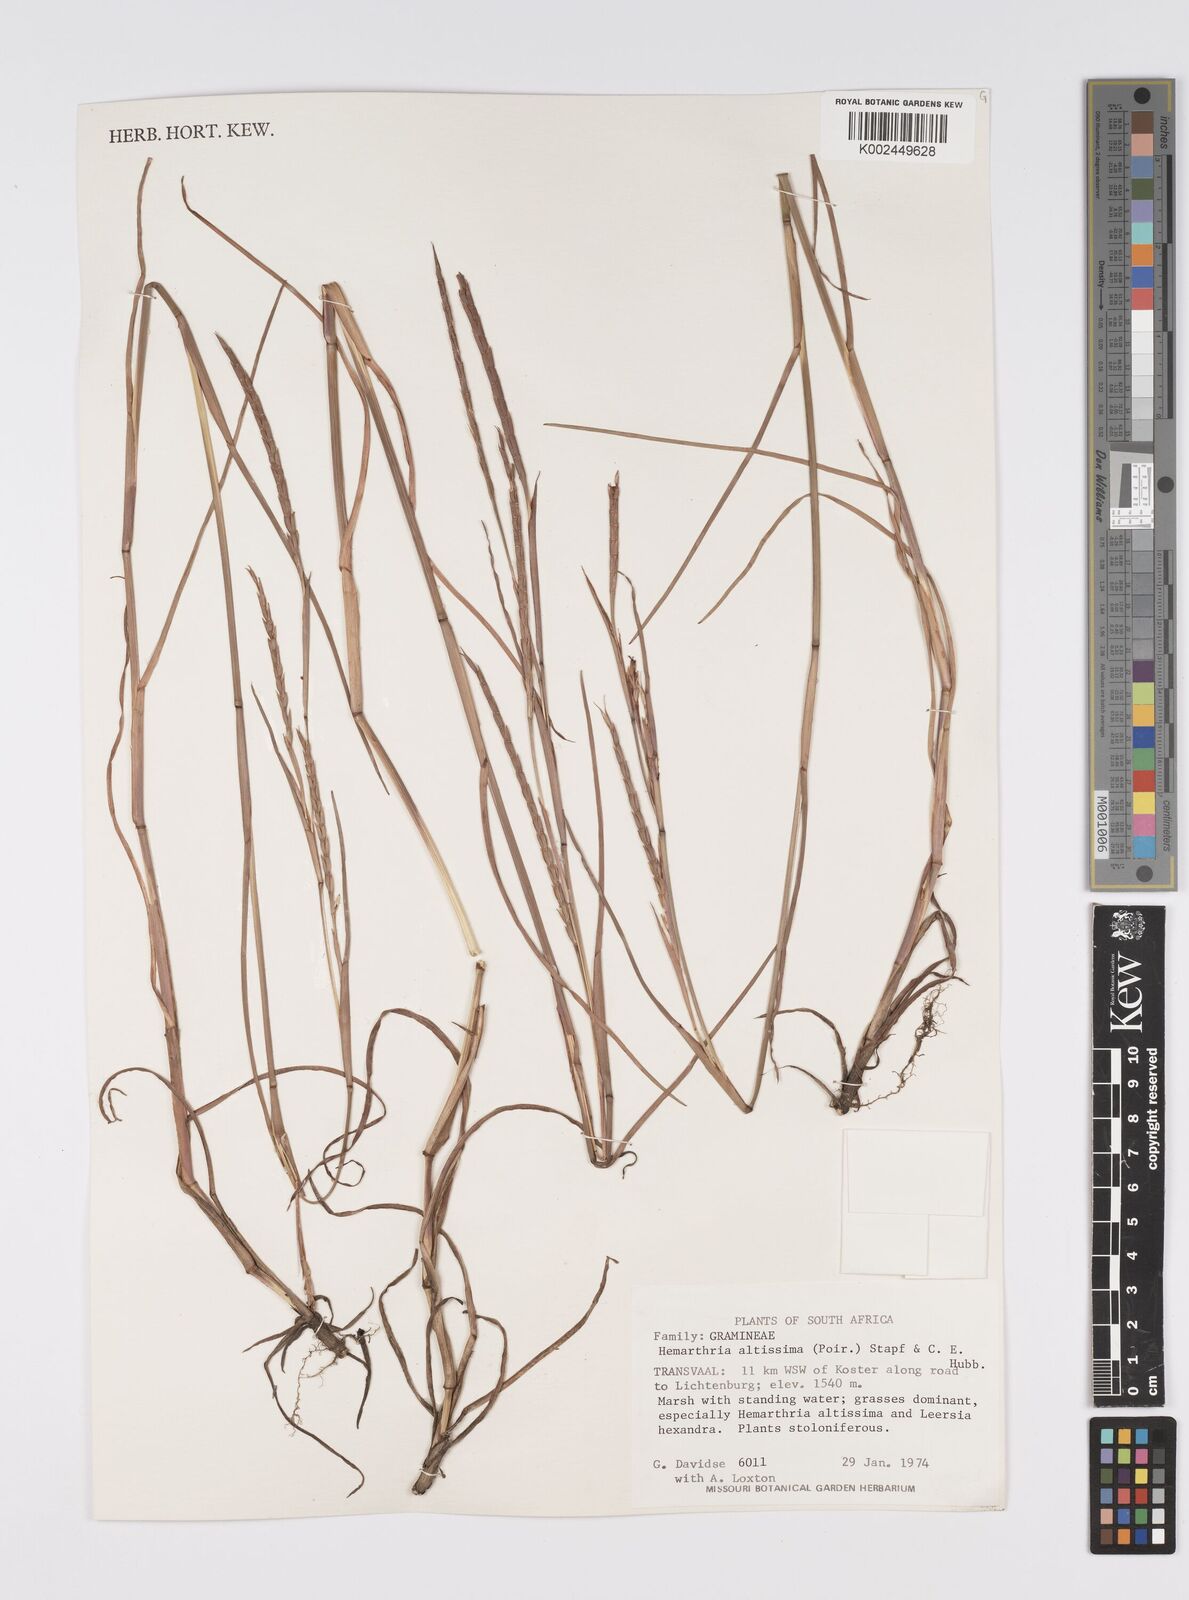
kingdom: Plantae
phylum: Tracheophyta
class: Liliopsida
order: Poales
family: Poaceae
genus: Hemarthria
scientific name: Hemarthria altissima
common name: African jointgrass
